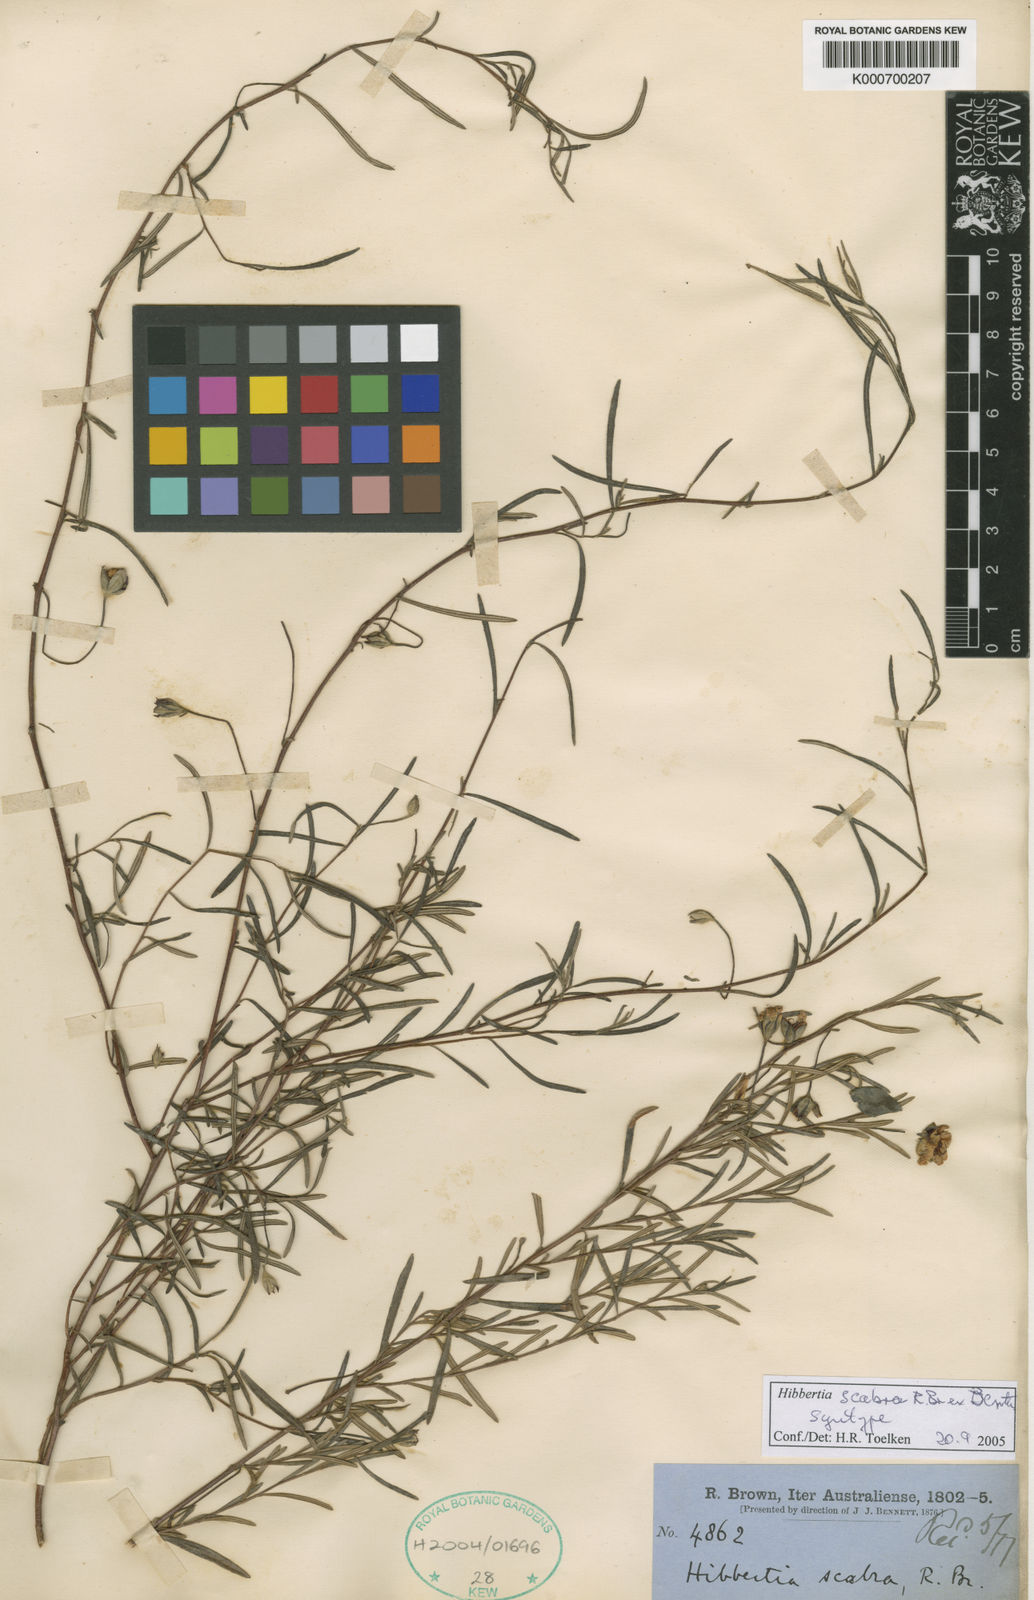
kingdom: Plantae
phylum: Tracheophyta
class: Magnoliopsida
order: Dilleniales
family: Dilleniaceae
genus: Hibbertia
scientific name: Hibbertia scabra
